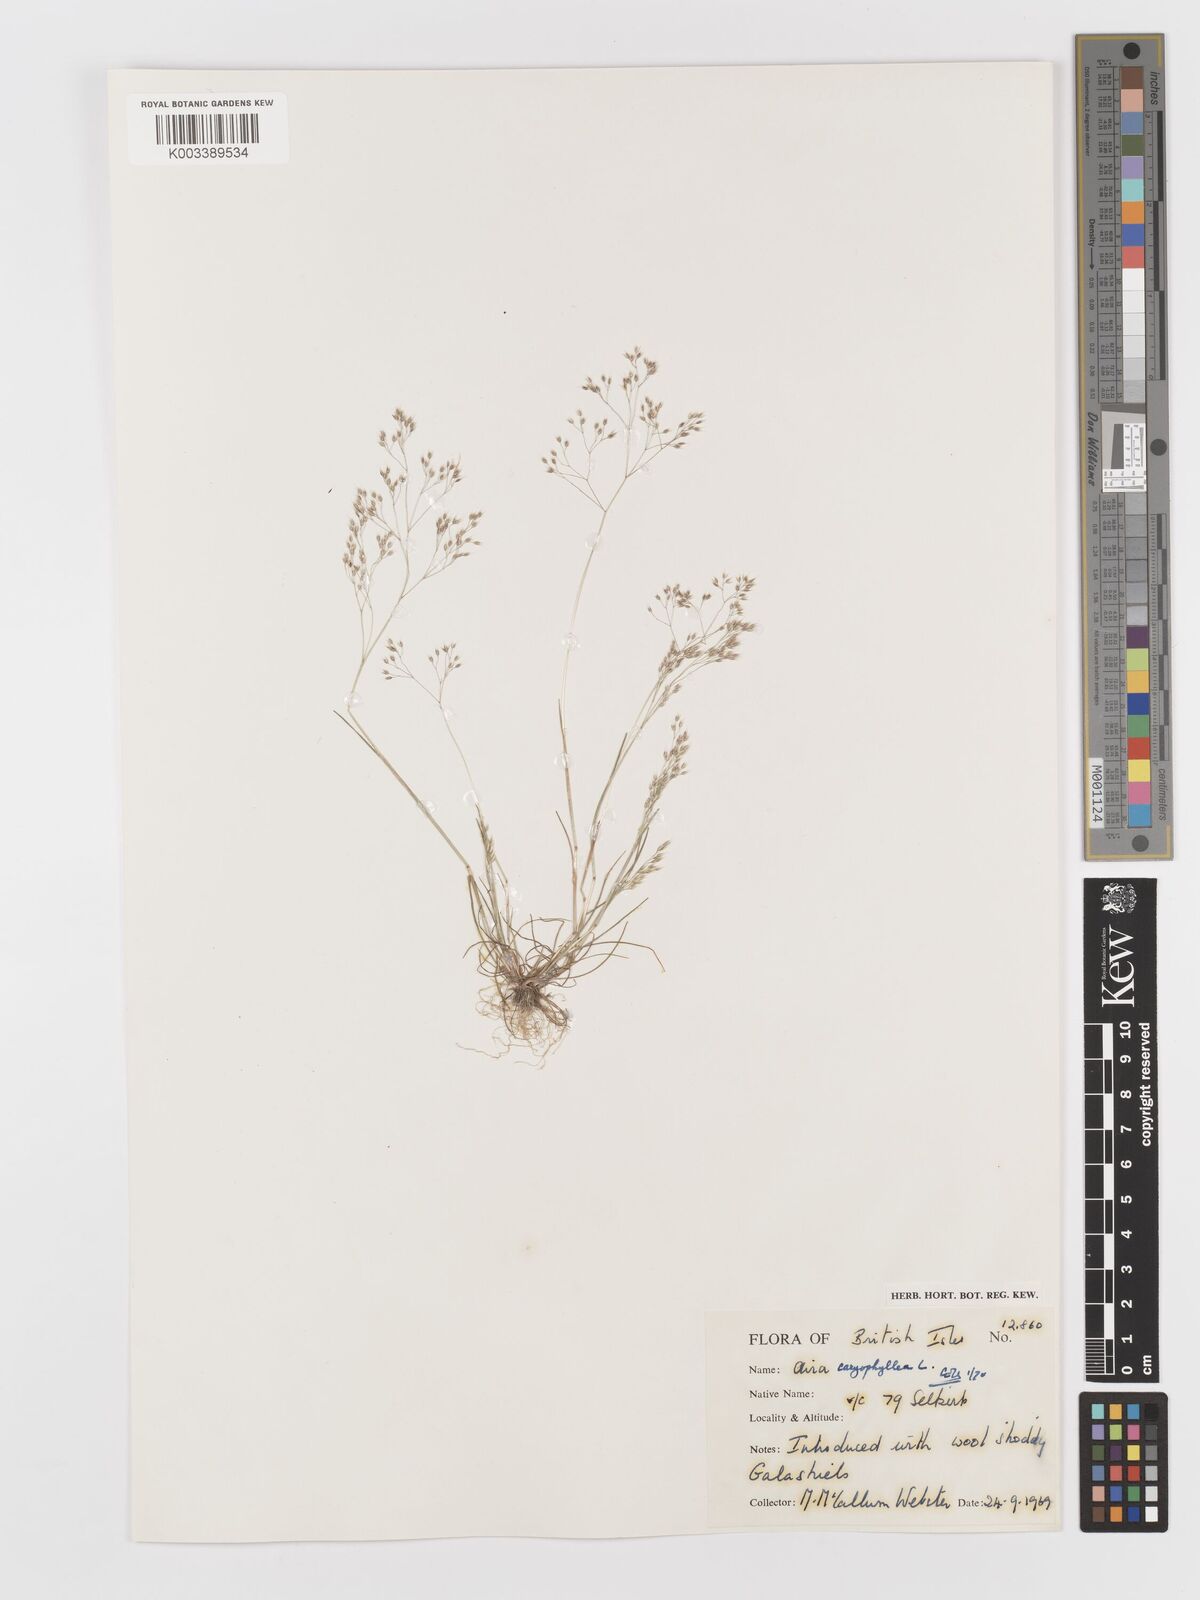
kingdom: Plantae
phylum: Tracheophyta
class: Liliopsida
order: Poales
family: Poaceae
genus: Aira
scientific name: Aira caryophyllea
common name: Silver hairgrass
